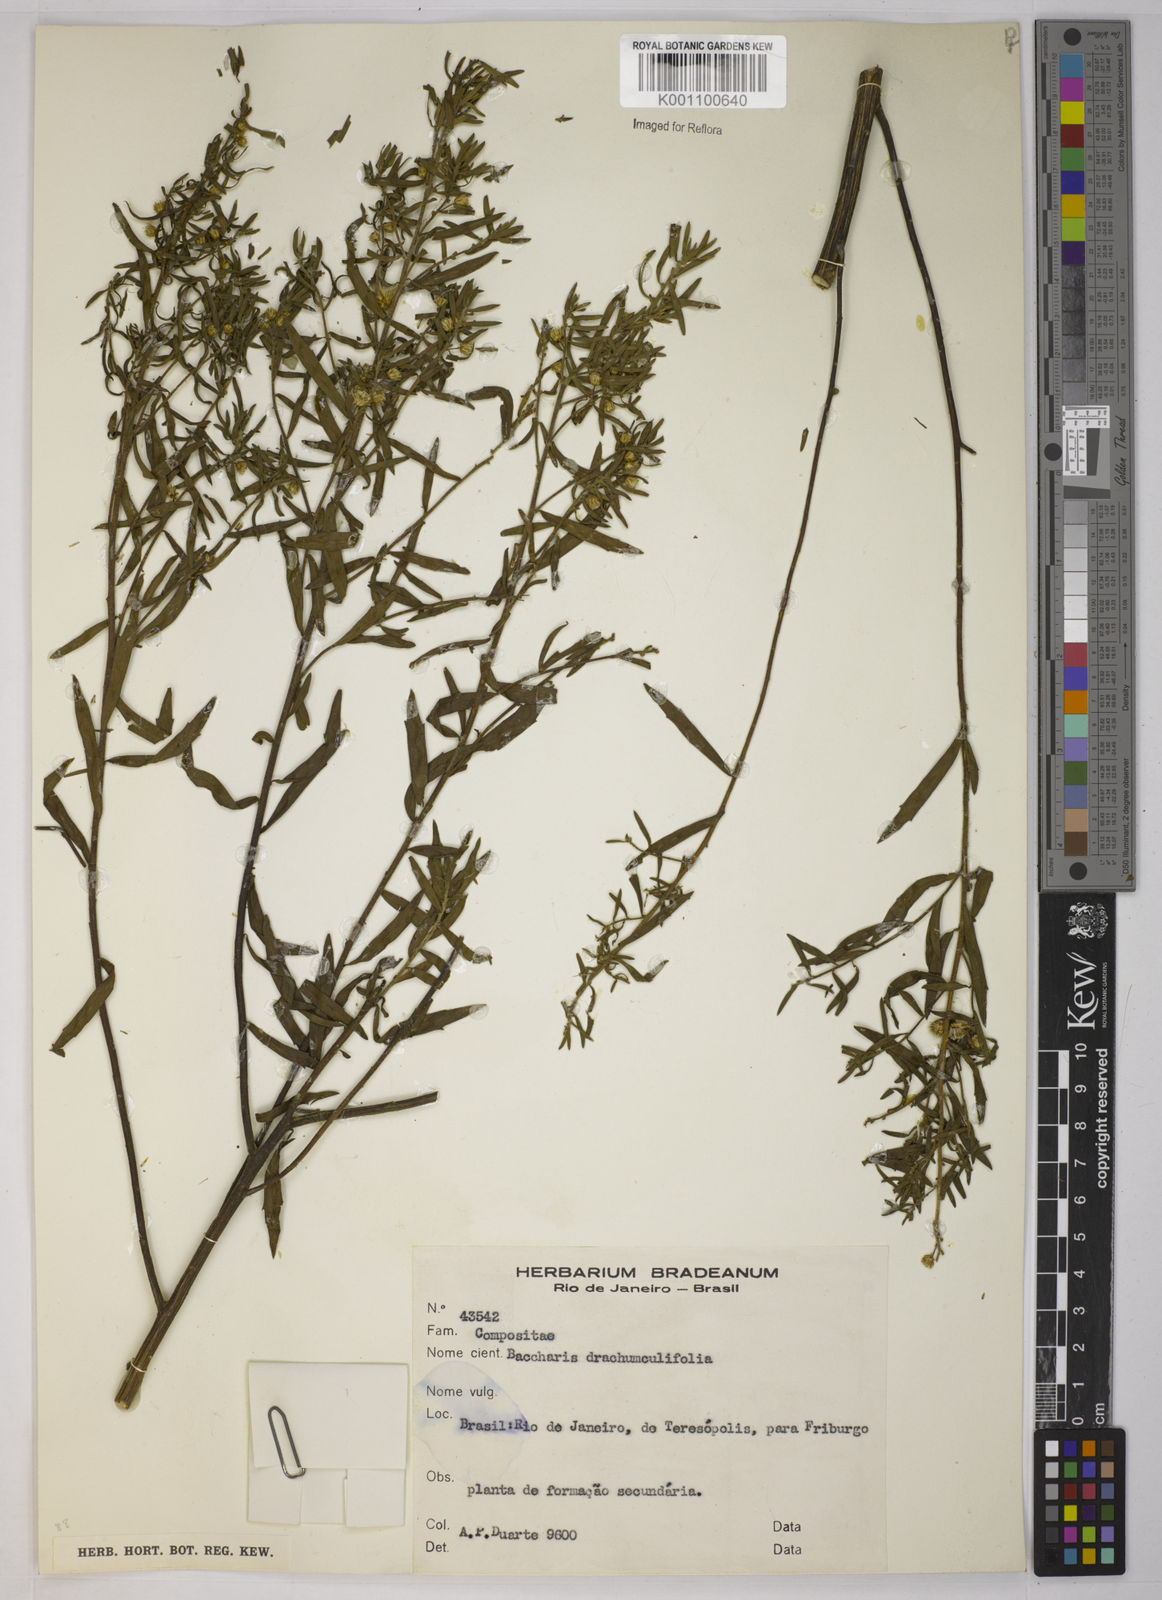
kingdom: Plantae
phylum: Tracheophyta
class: Magnoliopsida
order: Asterales
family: Asteraceae
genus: Baccharis
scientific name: Baccharis dracunculifolia
